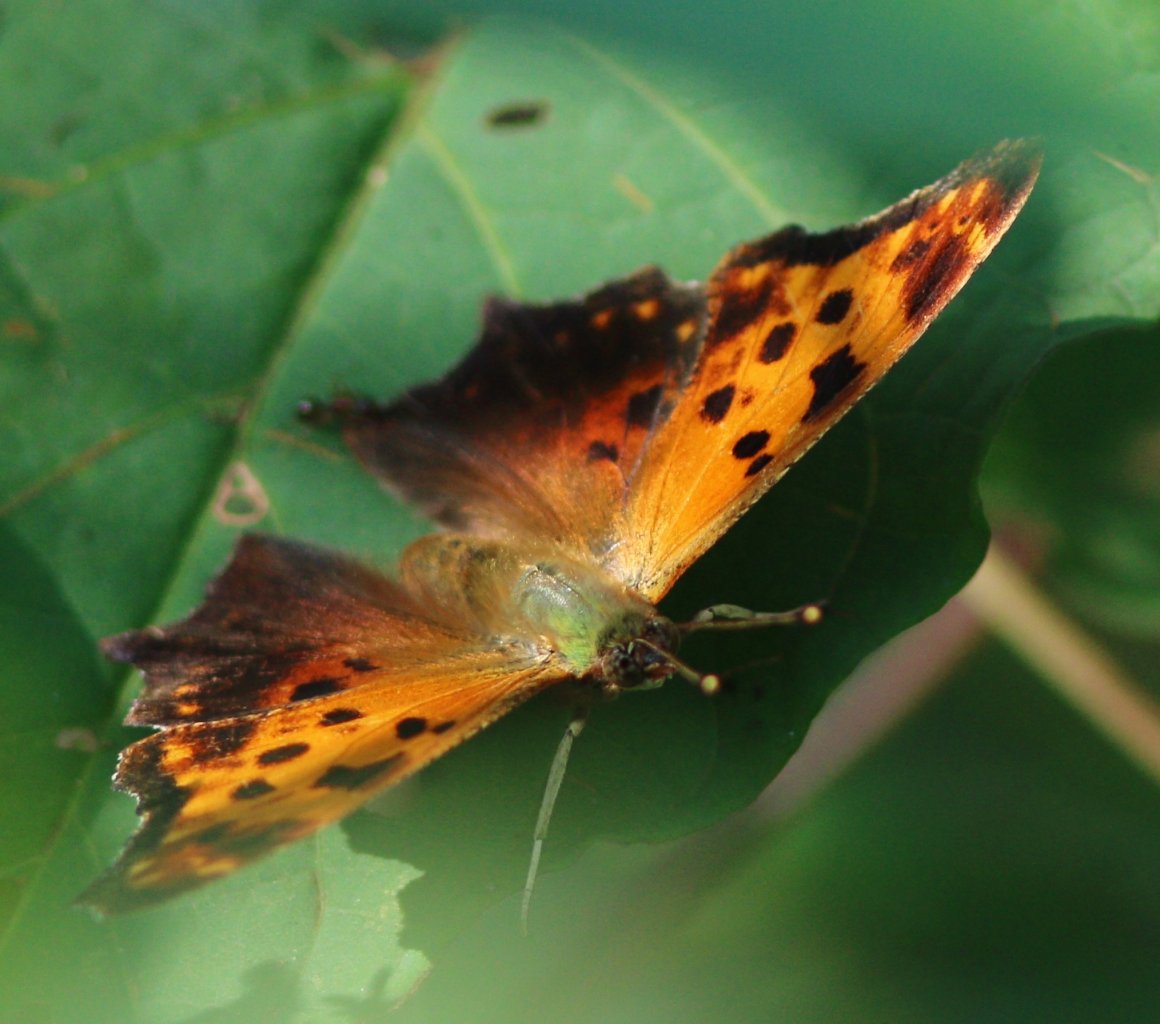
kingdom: Animalia
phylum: Arthropoda
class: Insecta
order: Lepidoptera
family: Nymphalidae
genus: Polygonia
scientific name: Polygonia comma
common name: Eastern Comma
